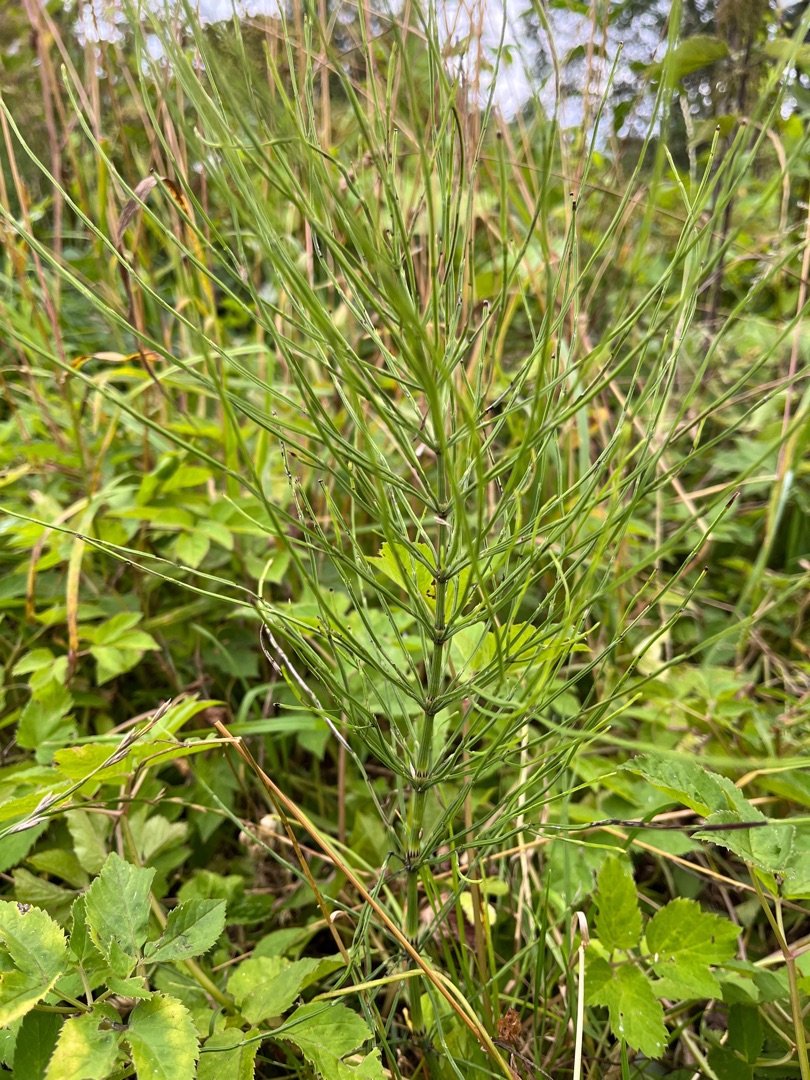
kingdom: Plantae
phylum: Tracheophyta
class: Polypodiopsida
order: Equisetales
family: Equisetaceae
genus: Equisetum
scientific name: Equisetum arvense
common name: Ager-padderok
